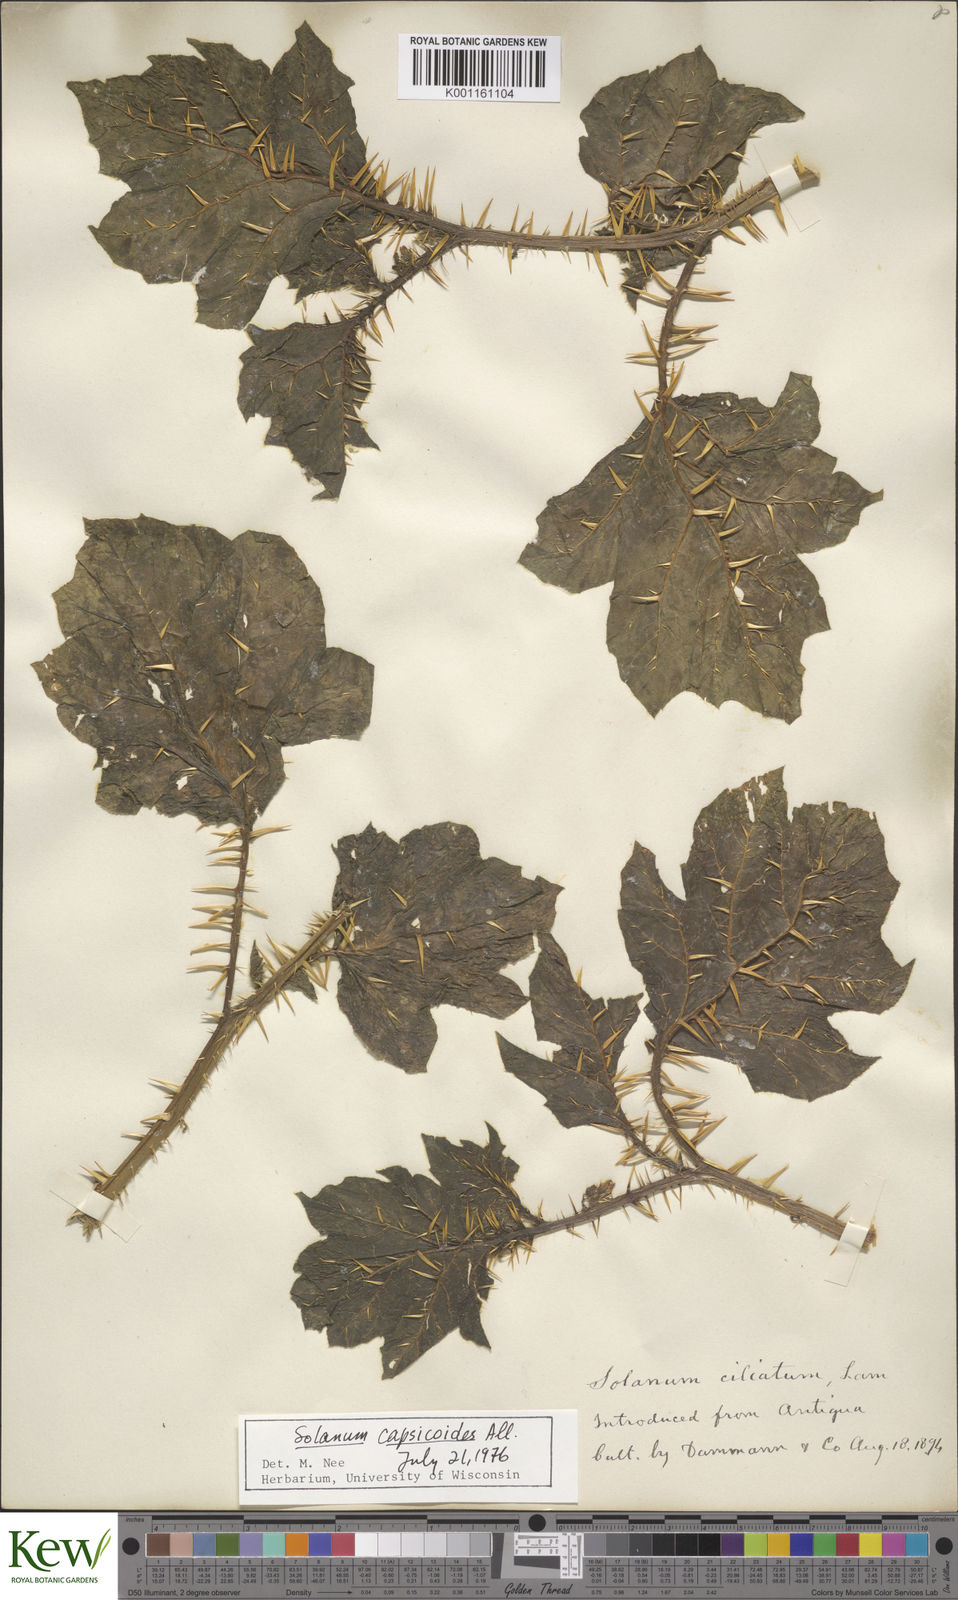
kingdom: Plantae
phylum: Tracheophyta
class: Magnoliopsida
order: Solanales
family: Solanaceae
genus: Solanum
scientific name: Solanum aculeatissimum
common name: Dutch eggplant
